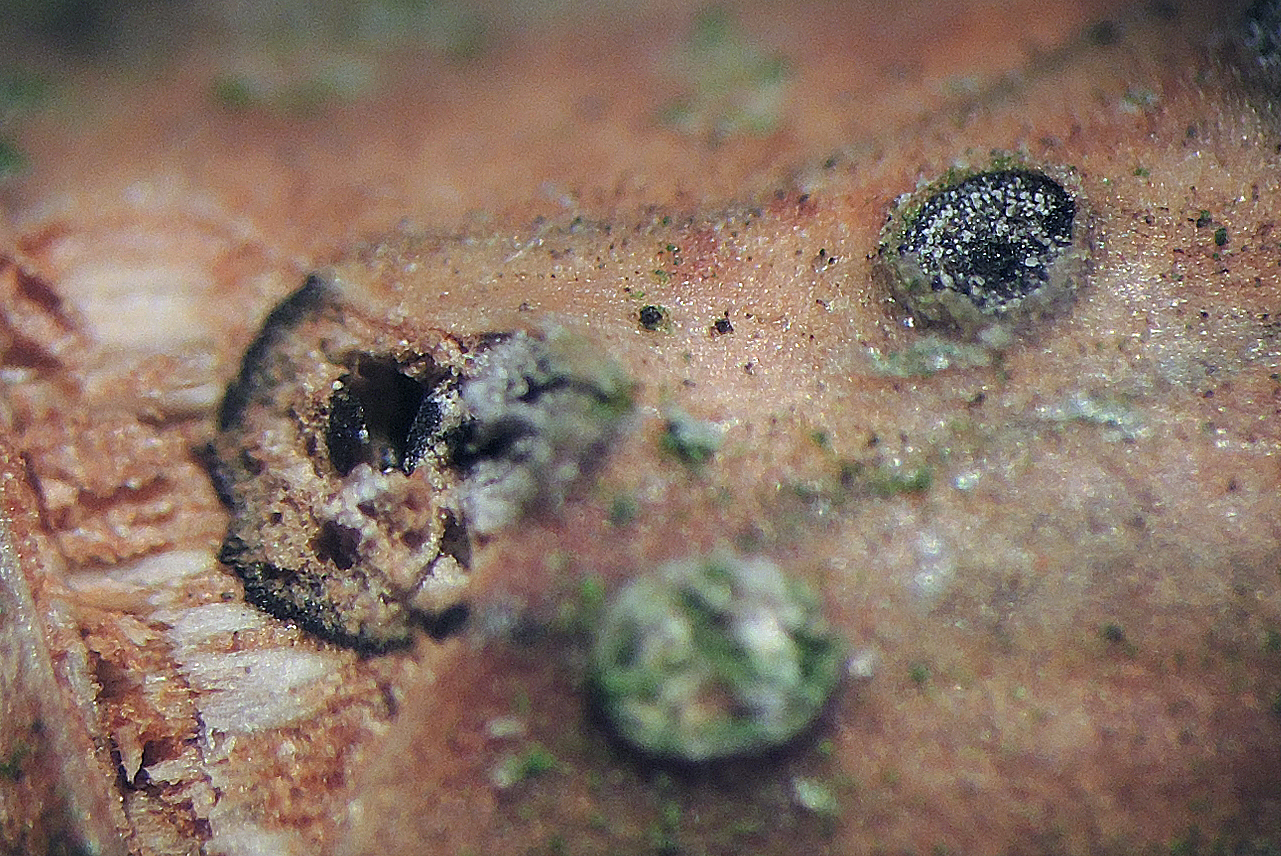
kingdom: Fungi
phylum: Ascomycota
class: Sordariomycetes
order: Diaporthales
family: Sydowiellaceae
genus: Caudospora
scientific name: Caudospora taleola
